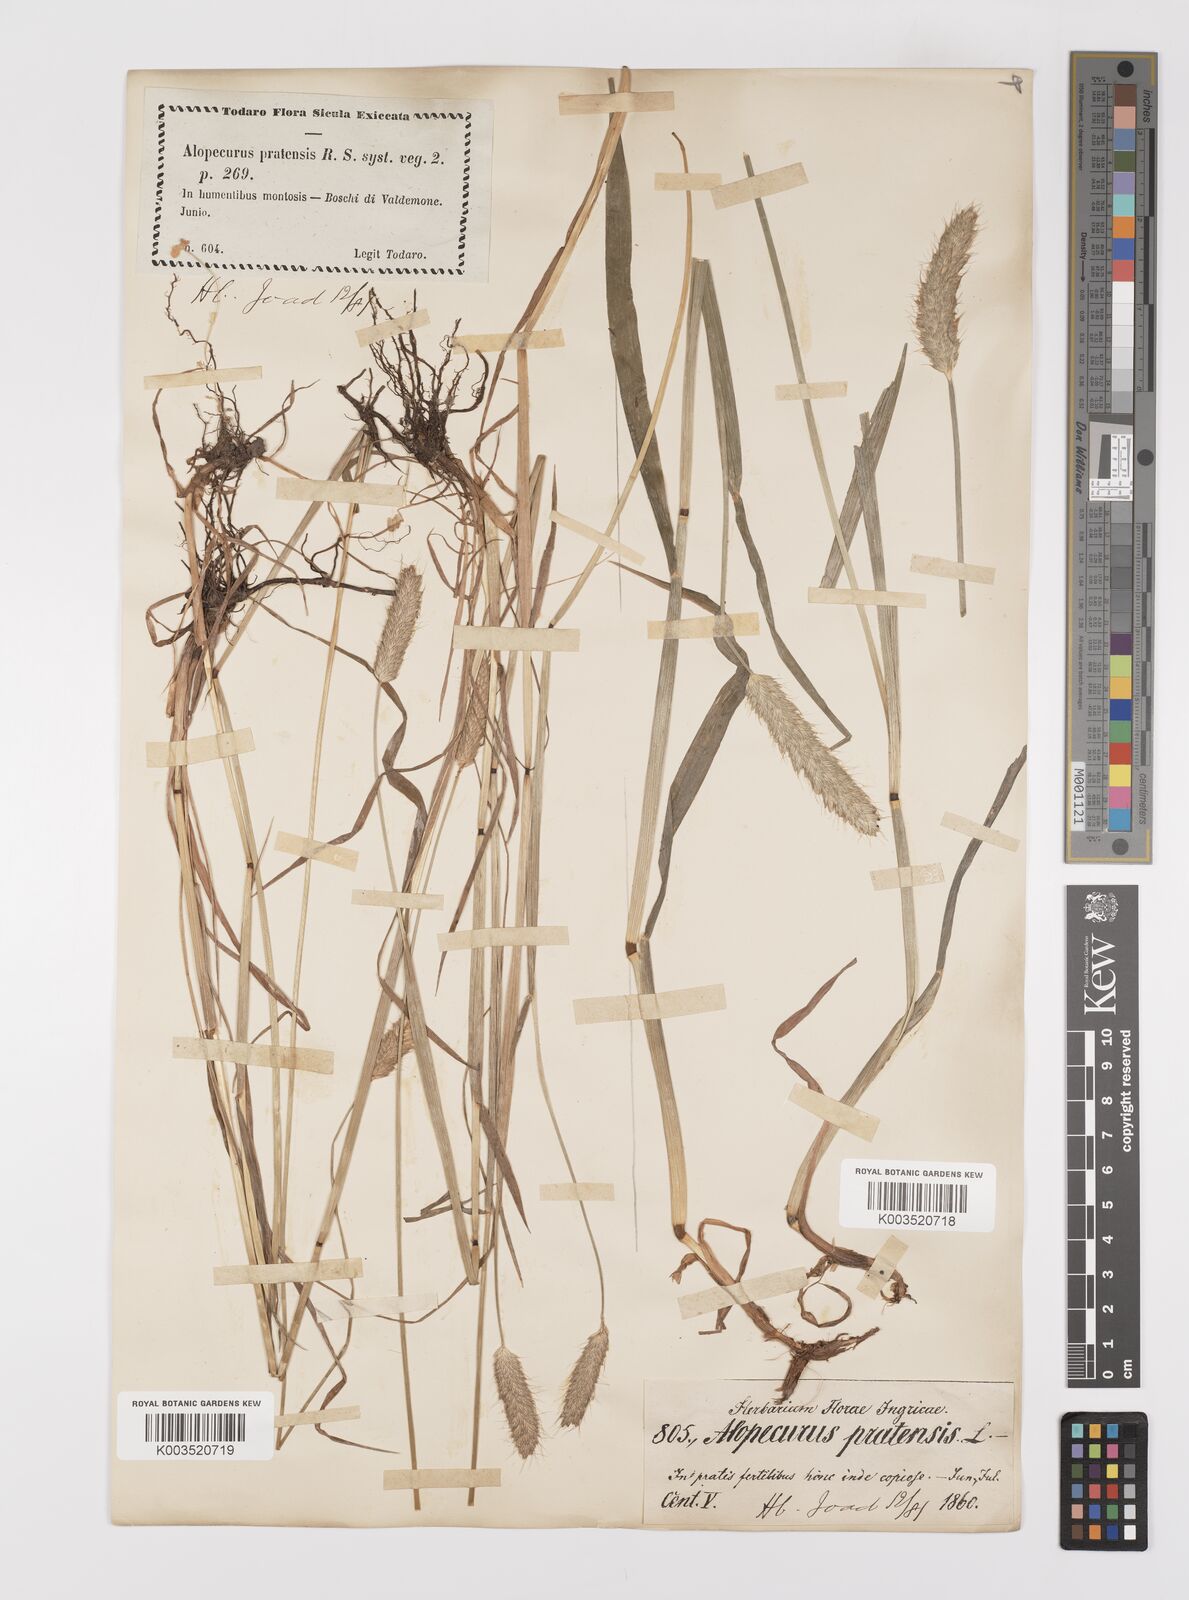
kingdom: Plantae
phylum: Tracheophyta
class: Liliopsida
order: Poales
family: Poaceae
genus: Alopecurus
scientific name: Alopecurus pratensis
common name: Meadow foxtail
